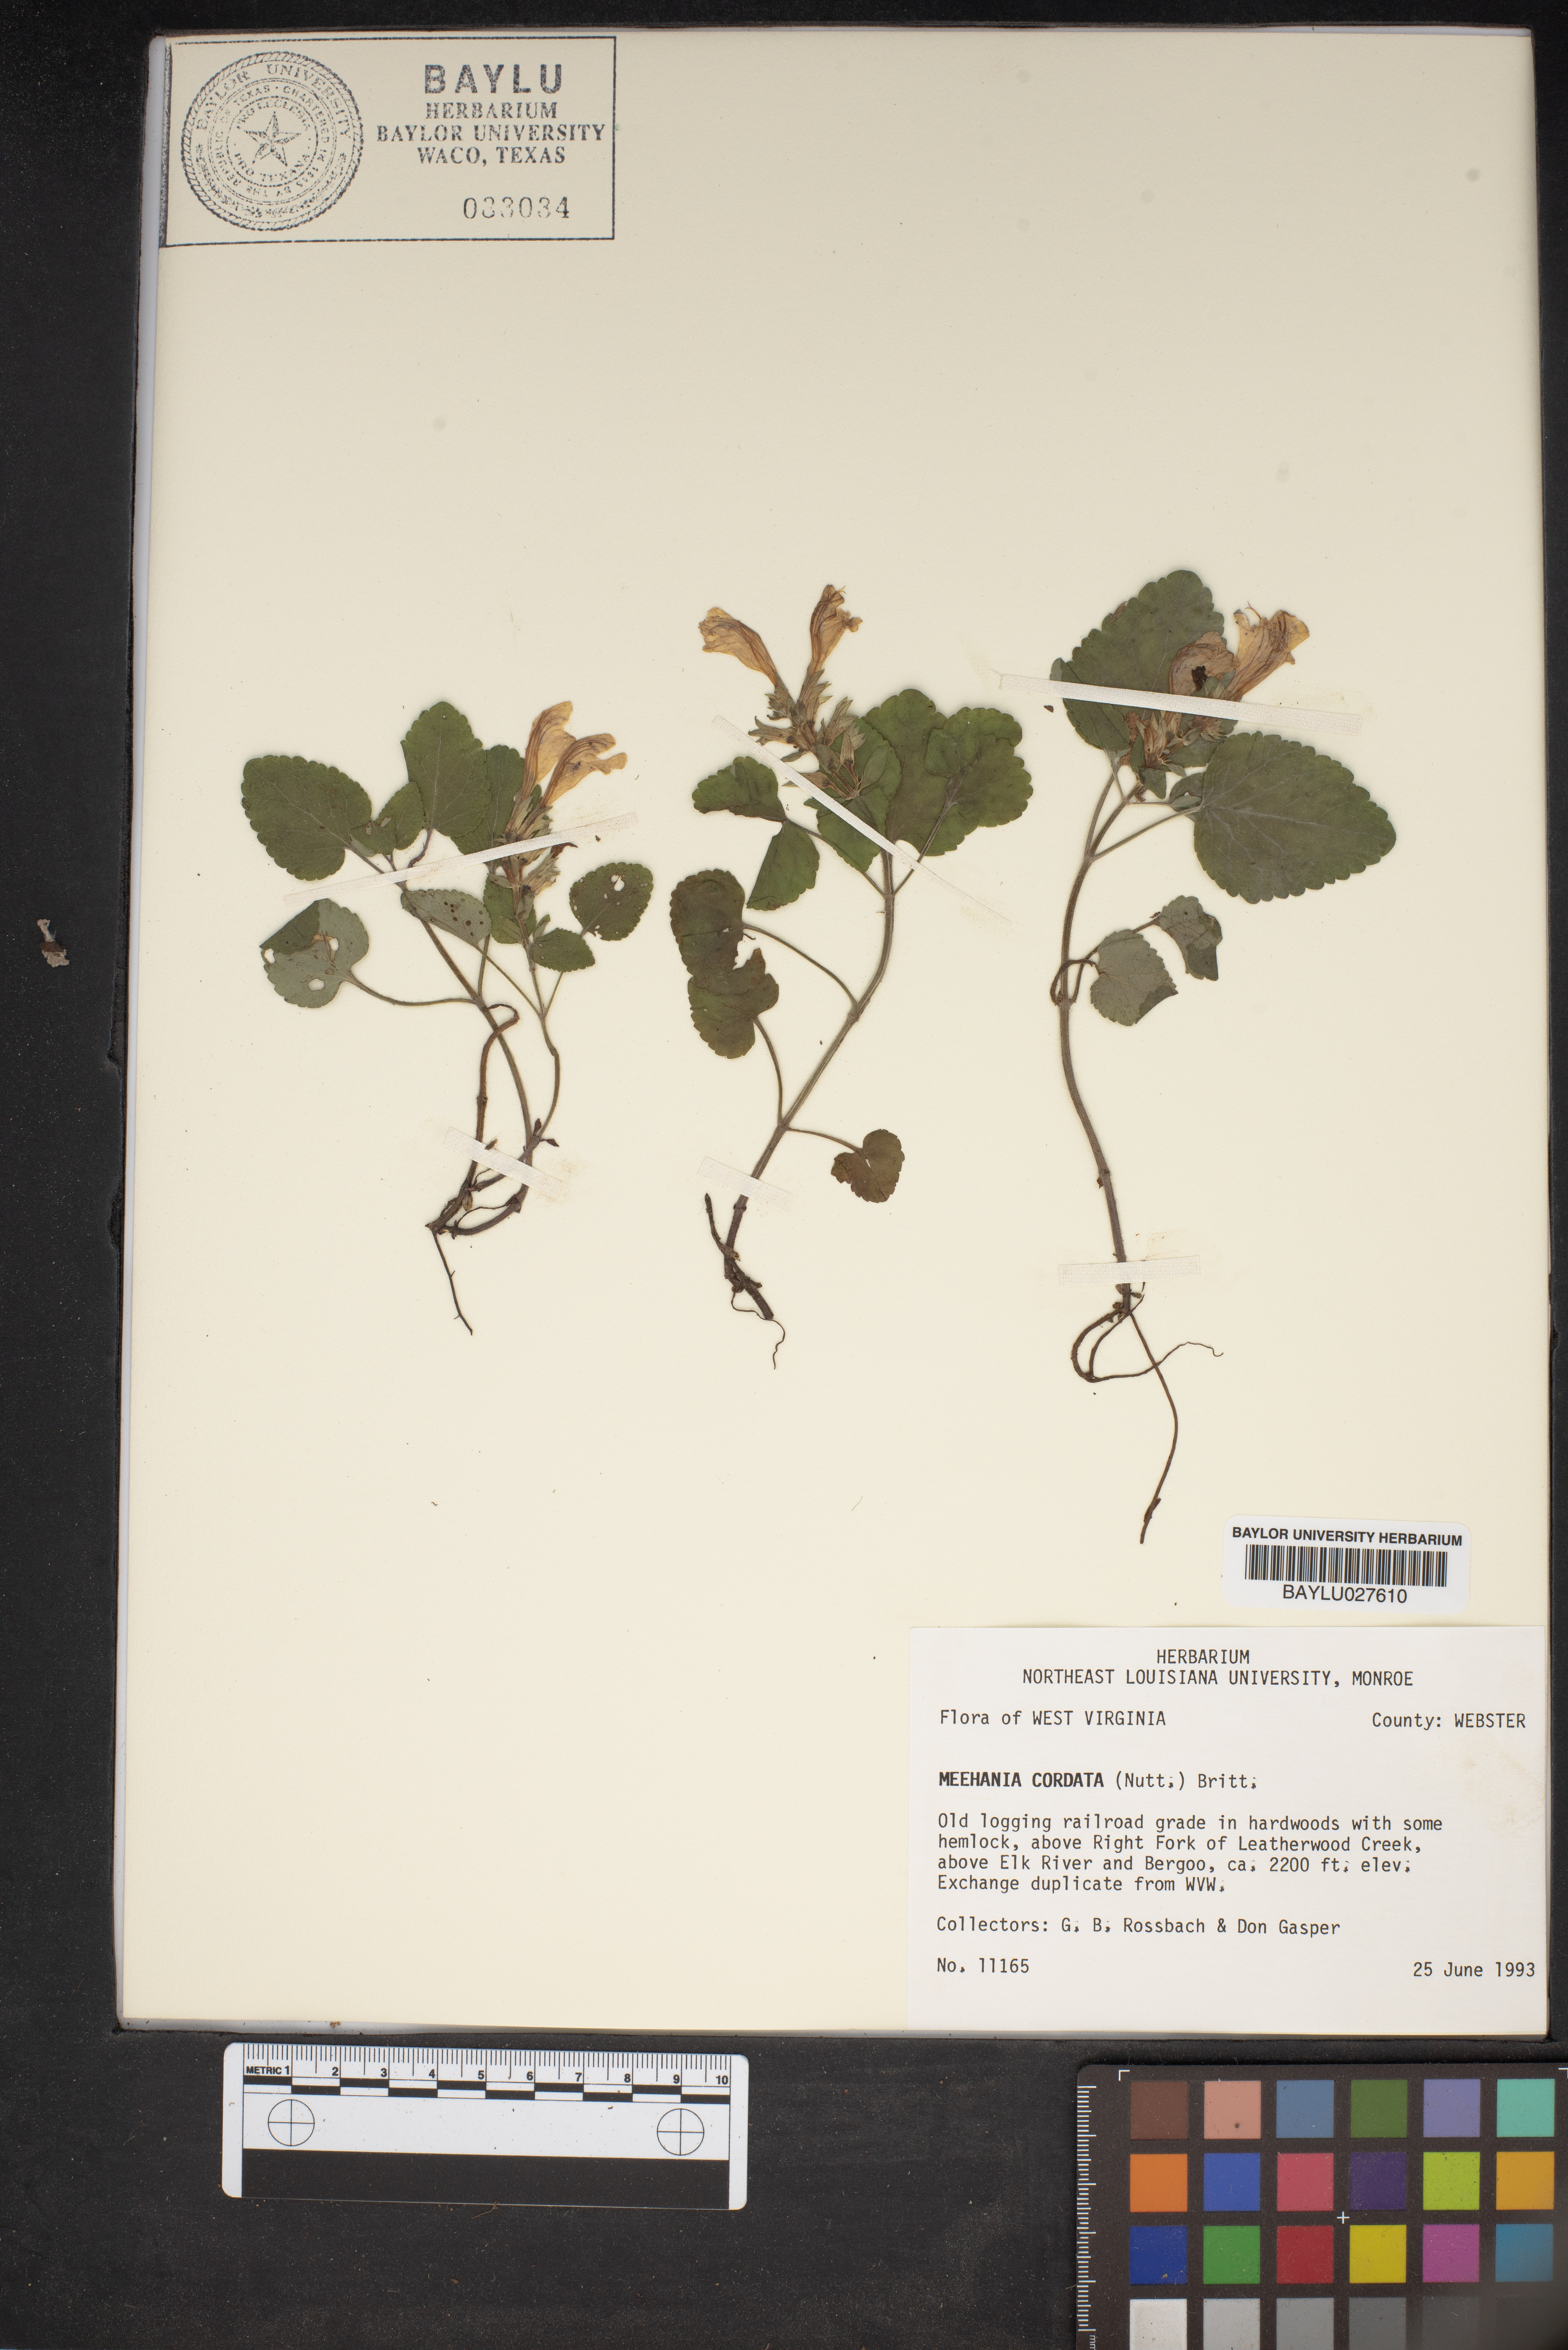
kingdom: Plantae
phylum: Tracheophyta
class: Magnoliopsida
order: Lamiales
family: Lamiaceae
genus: Meehania
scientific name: Meehania cordata
